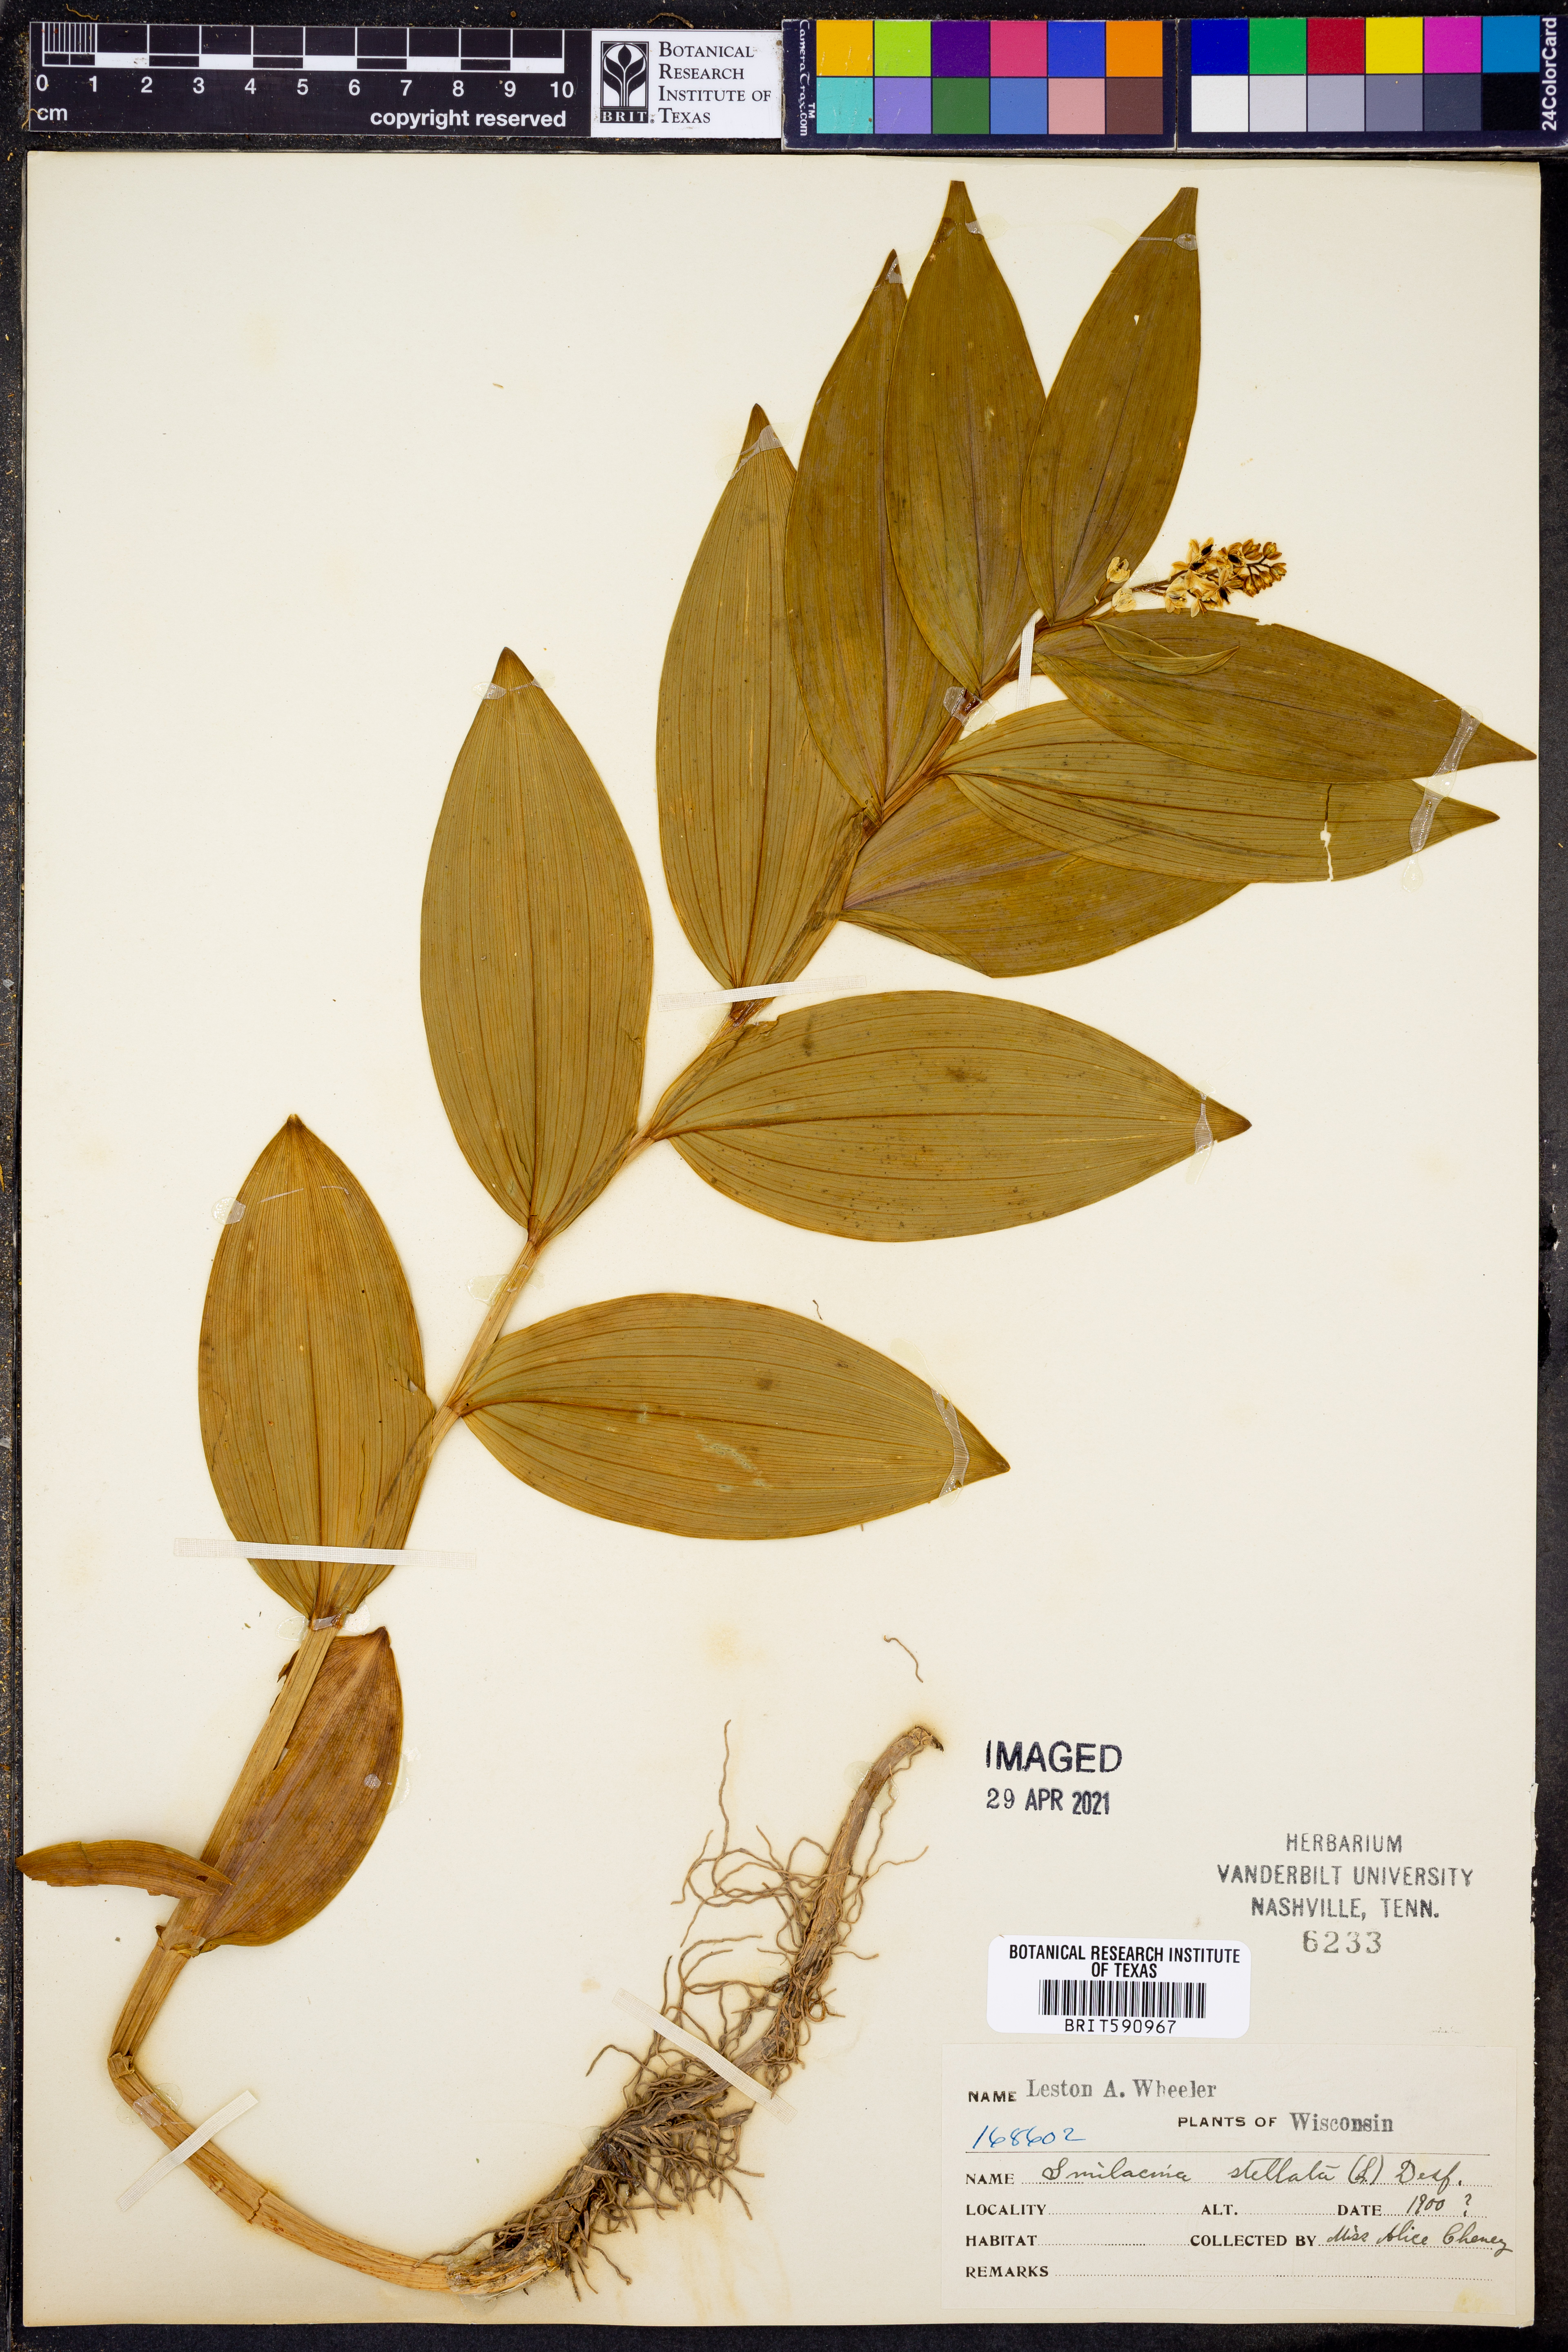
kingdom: Plantae
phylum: Tracheophyta
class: Liliopsida
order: Asparagales
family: Asparagaceae
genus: Maianthemum
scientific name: Maianthemum stellatum
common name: Little false solomon's seal
